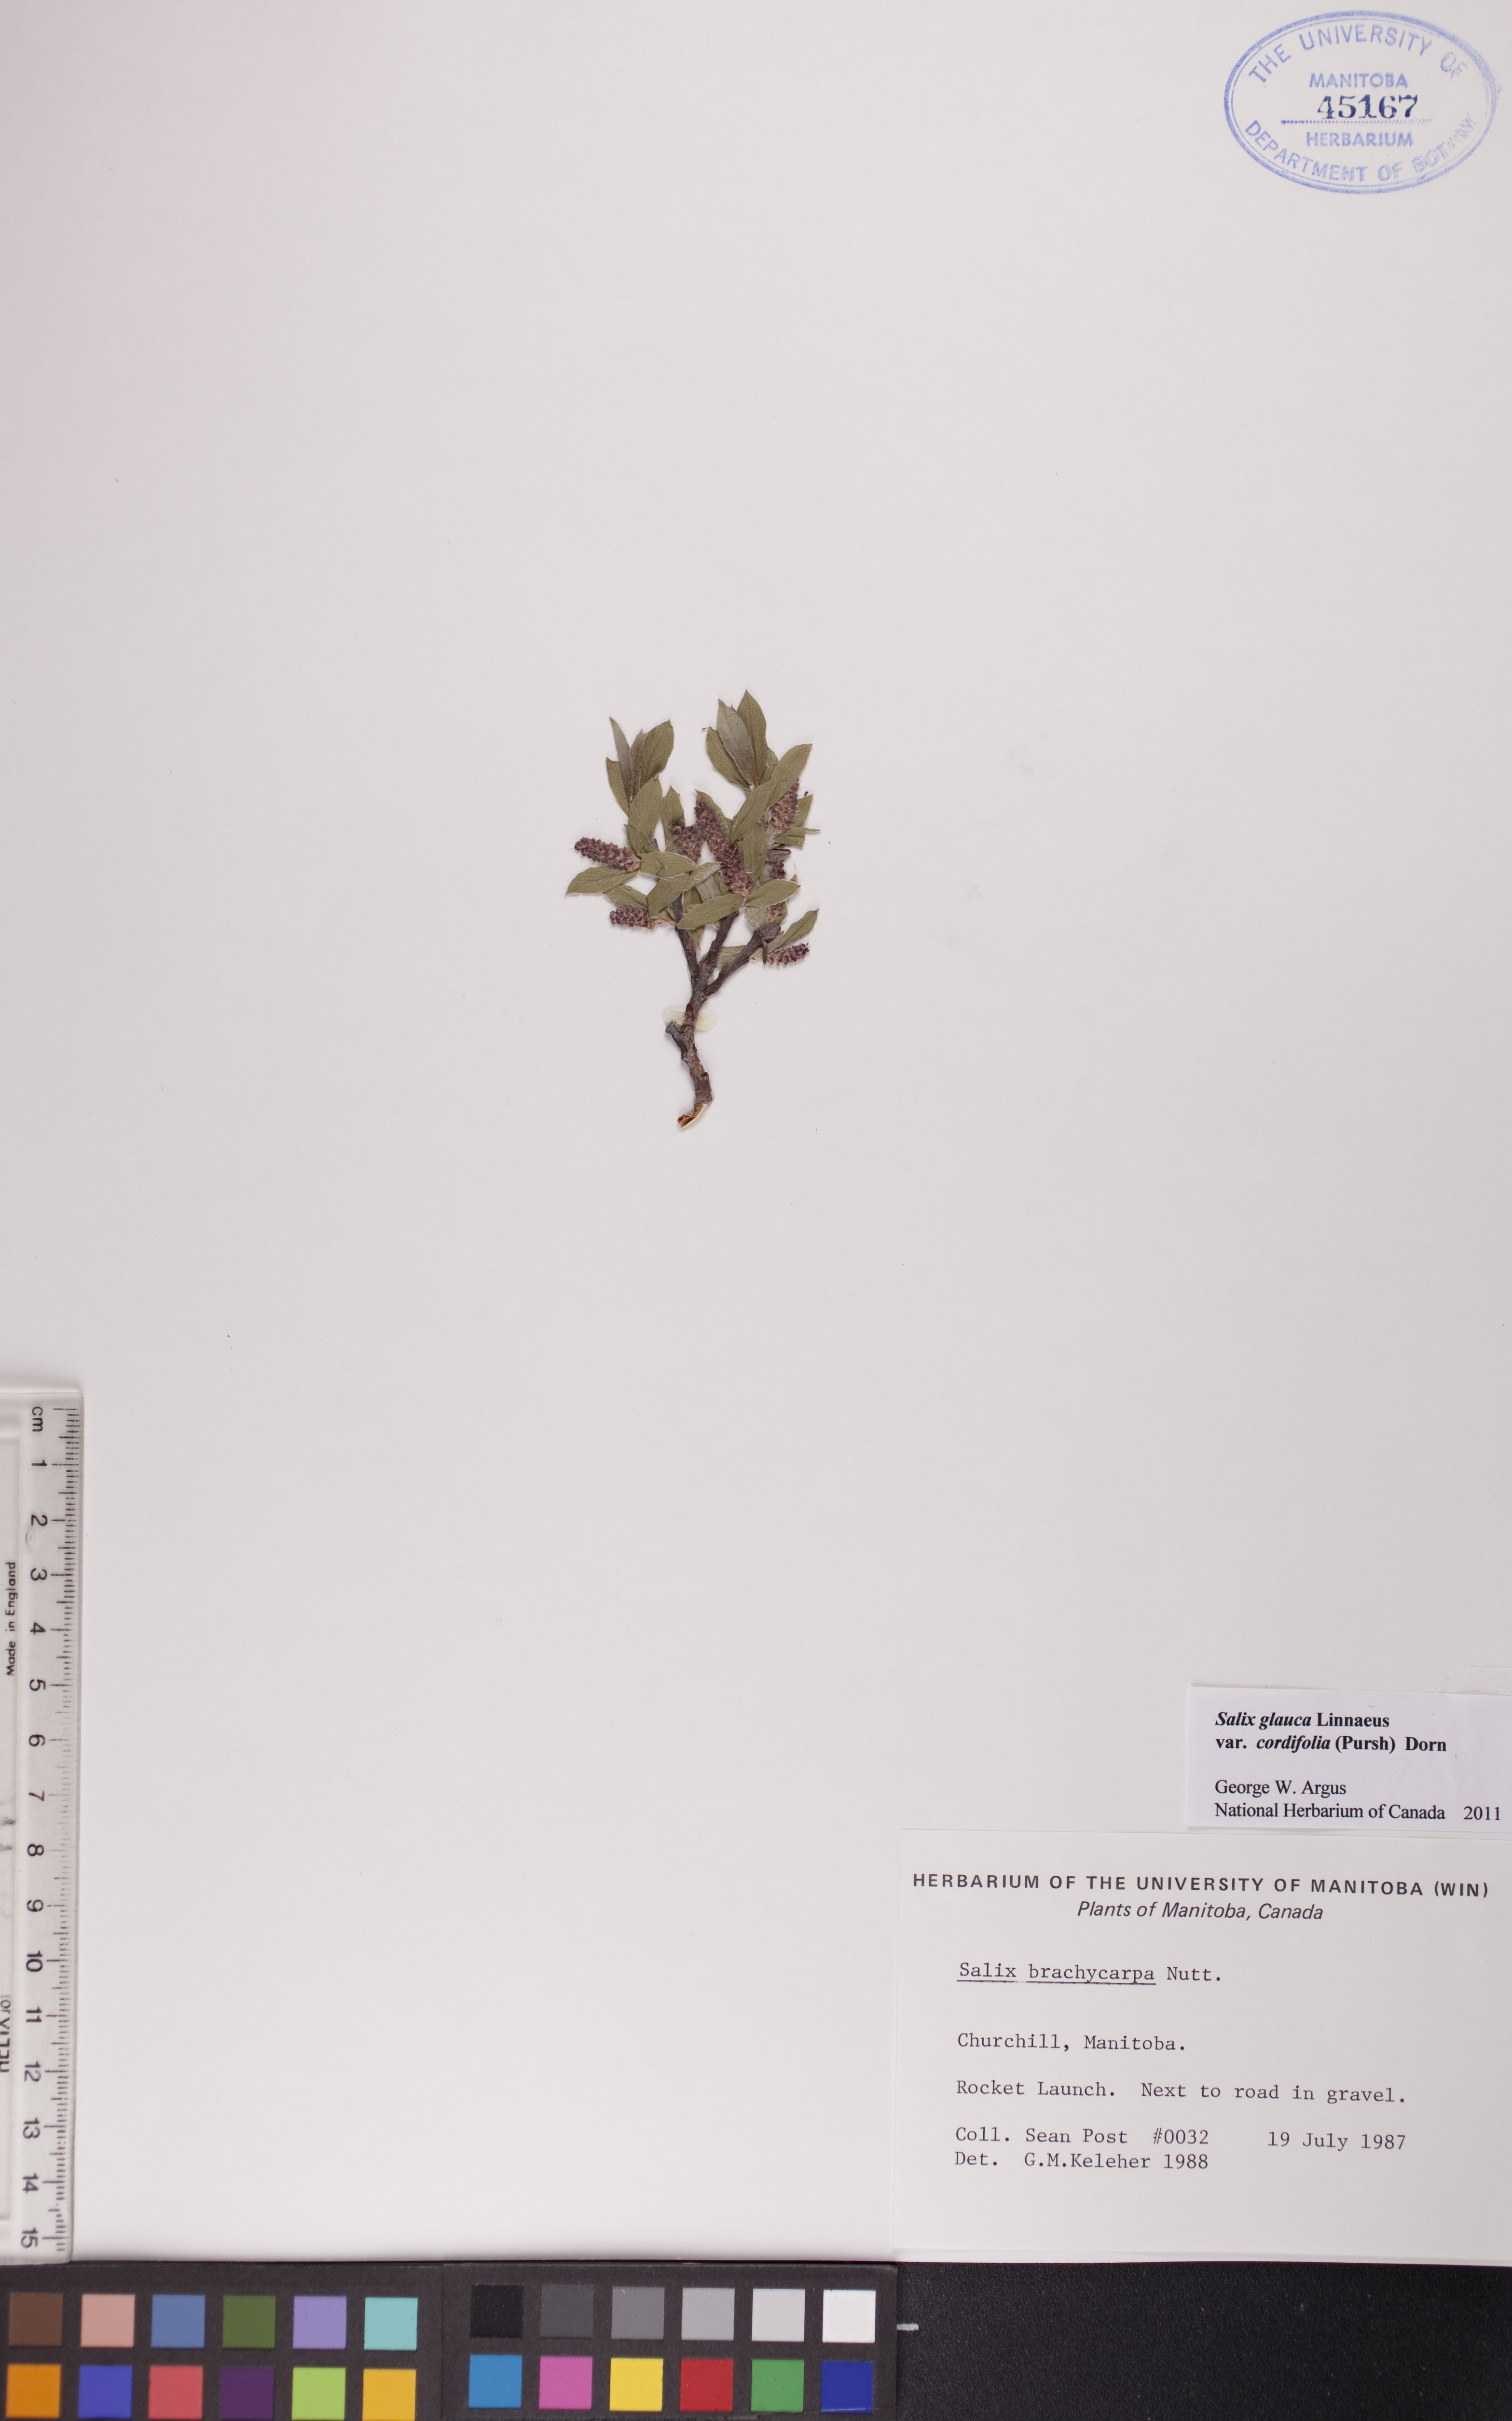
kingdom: Plantae
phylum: Tracheophyta
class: Magnoliopsida
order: Malpighiales
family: Salicaceae
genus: Salix
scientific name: Salix glauca
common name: Glaucous willow
